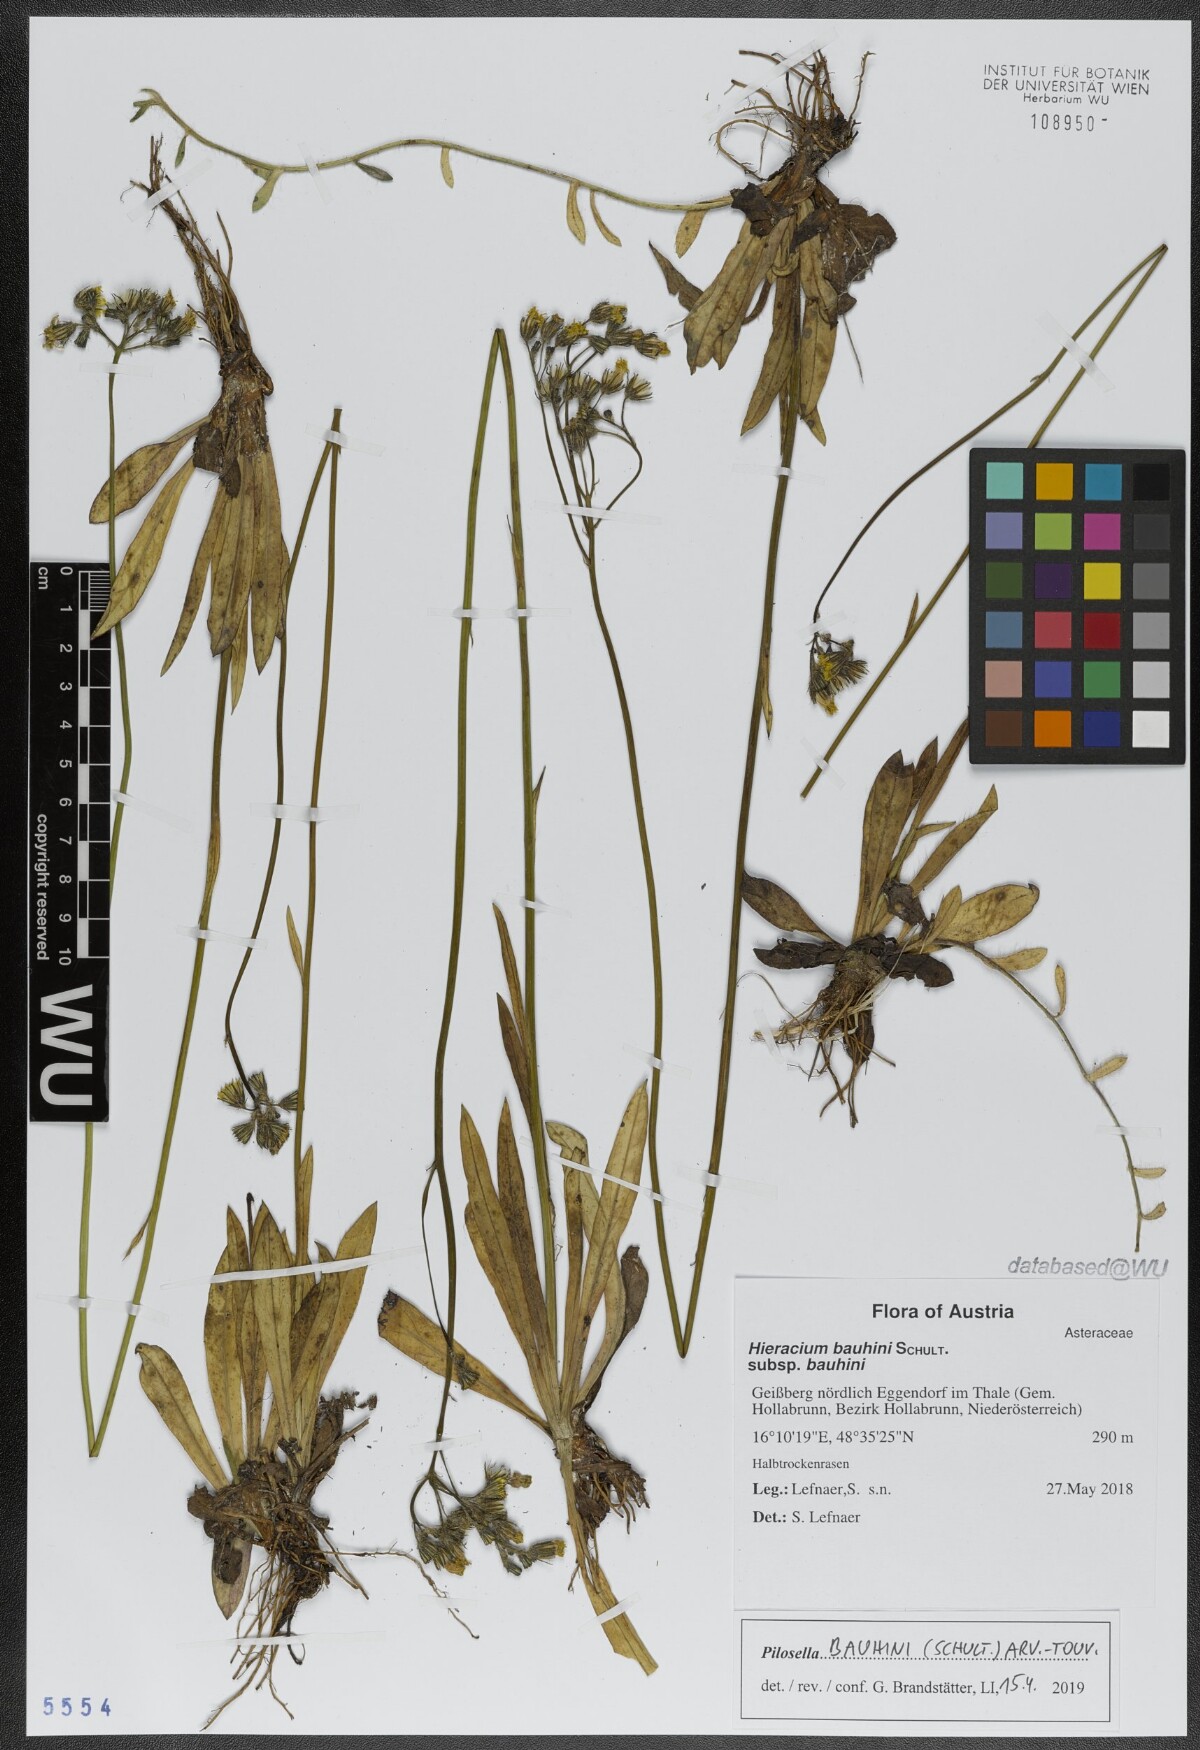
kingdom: Plantae
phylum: Tracheophyta
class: Magnoliopsida
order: Asterales
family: Asteraceae
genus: Pilosella
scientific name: Pilosella bauhini
